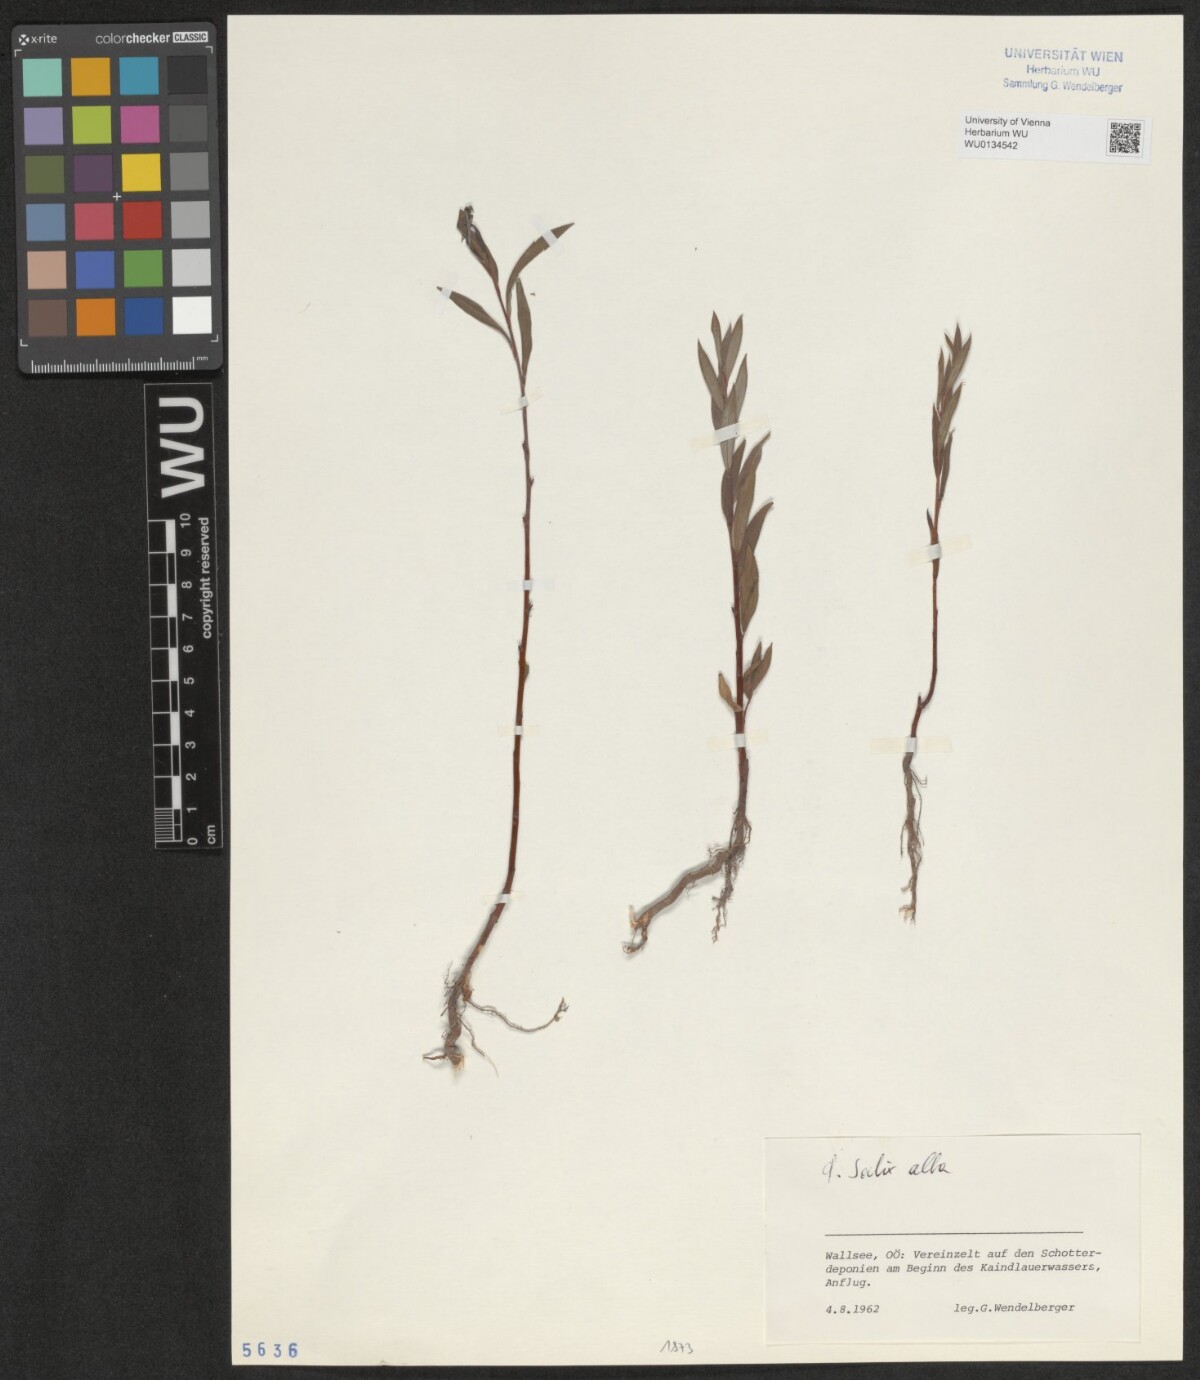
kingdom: Plantae
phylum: Tracheophyta
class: Magnoliopsida
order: Malpighiales
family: Salicaceae
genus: Salix
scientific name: Salix alba
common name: White willow
